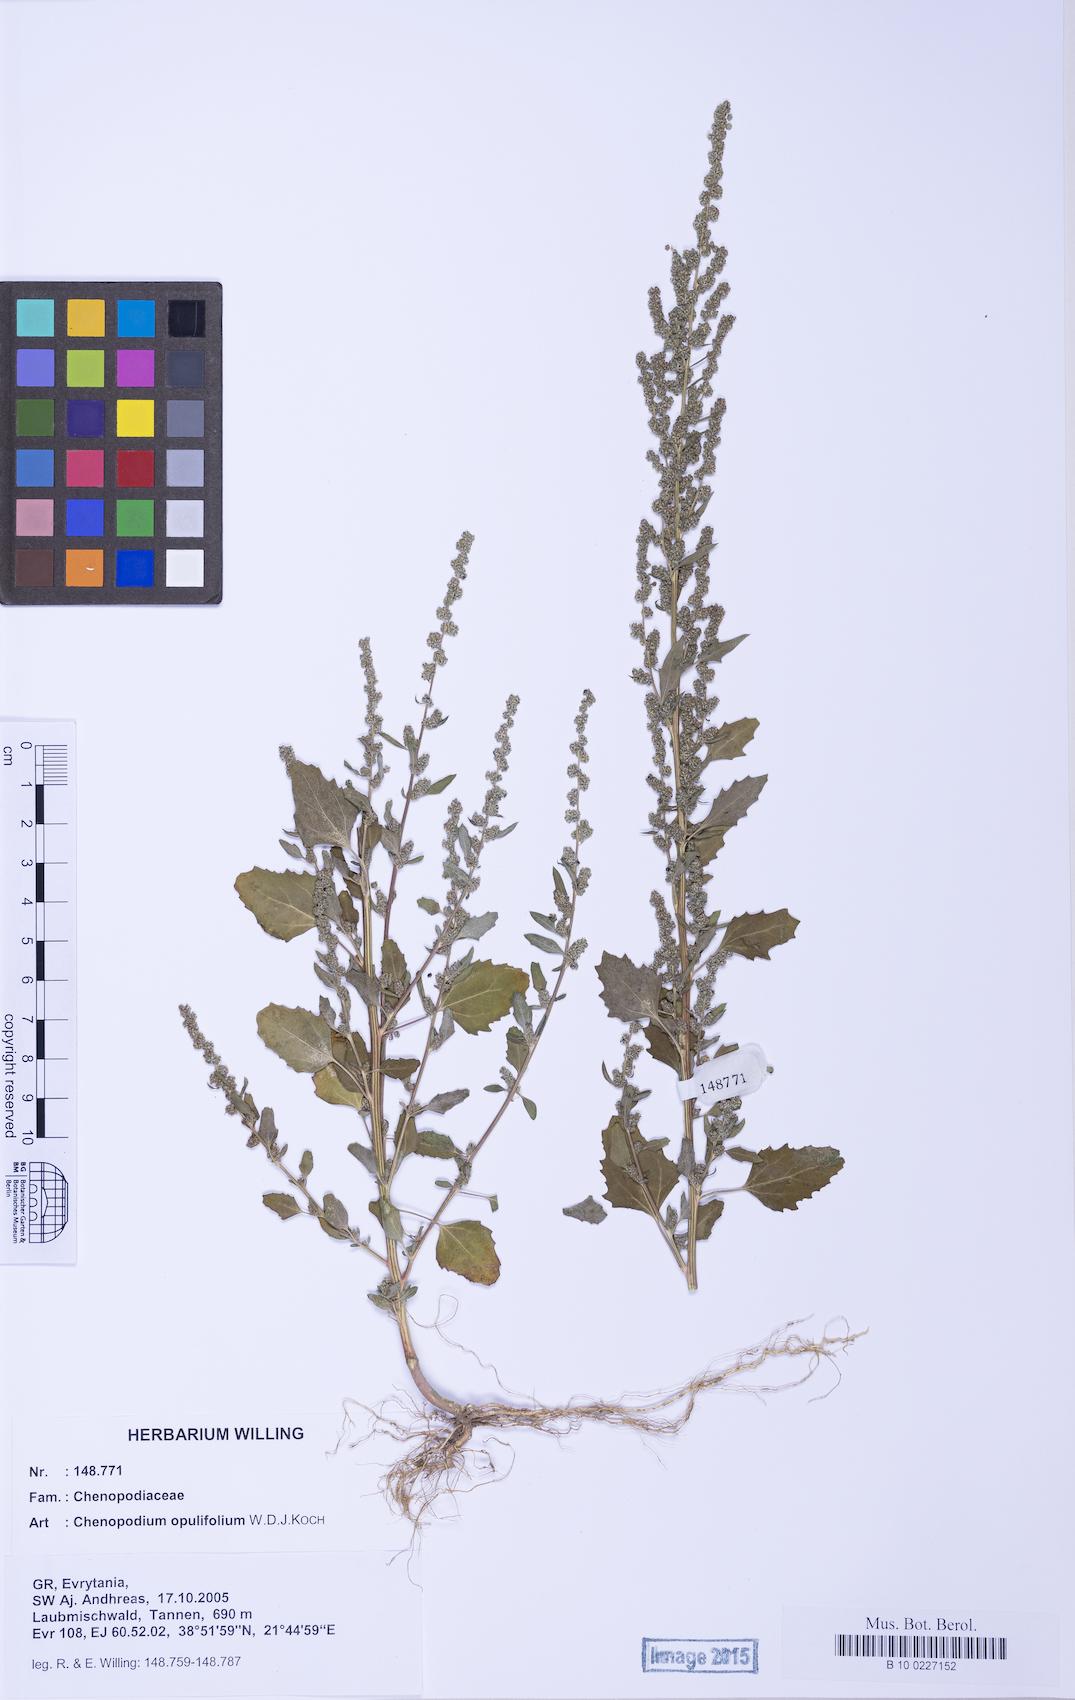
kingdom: Plantae
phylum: Tracheophyta
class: Magnoliopsida
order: Caryophyllales
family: Amaranthaceae
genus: Chenopodium
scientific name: Chenopodium album
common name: Fat-hen
